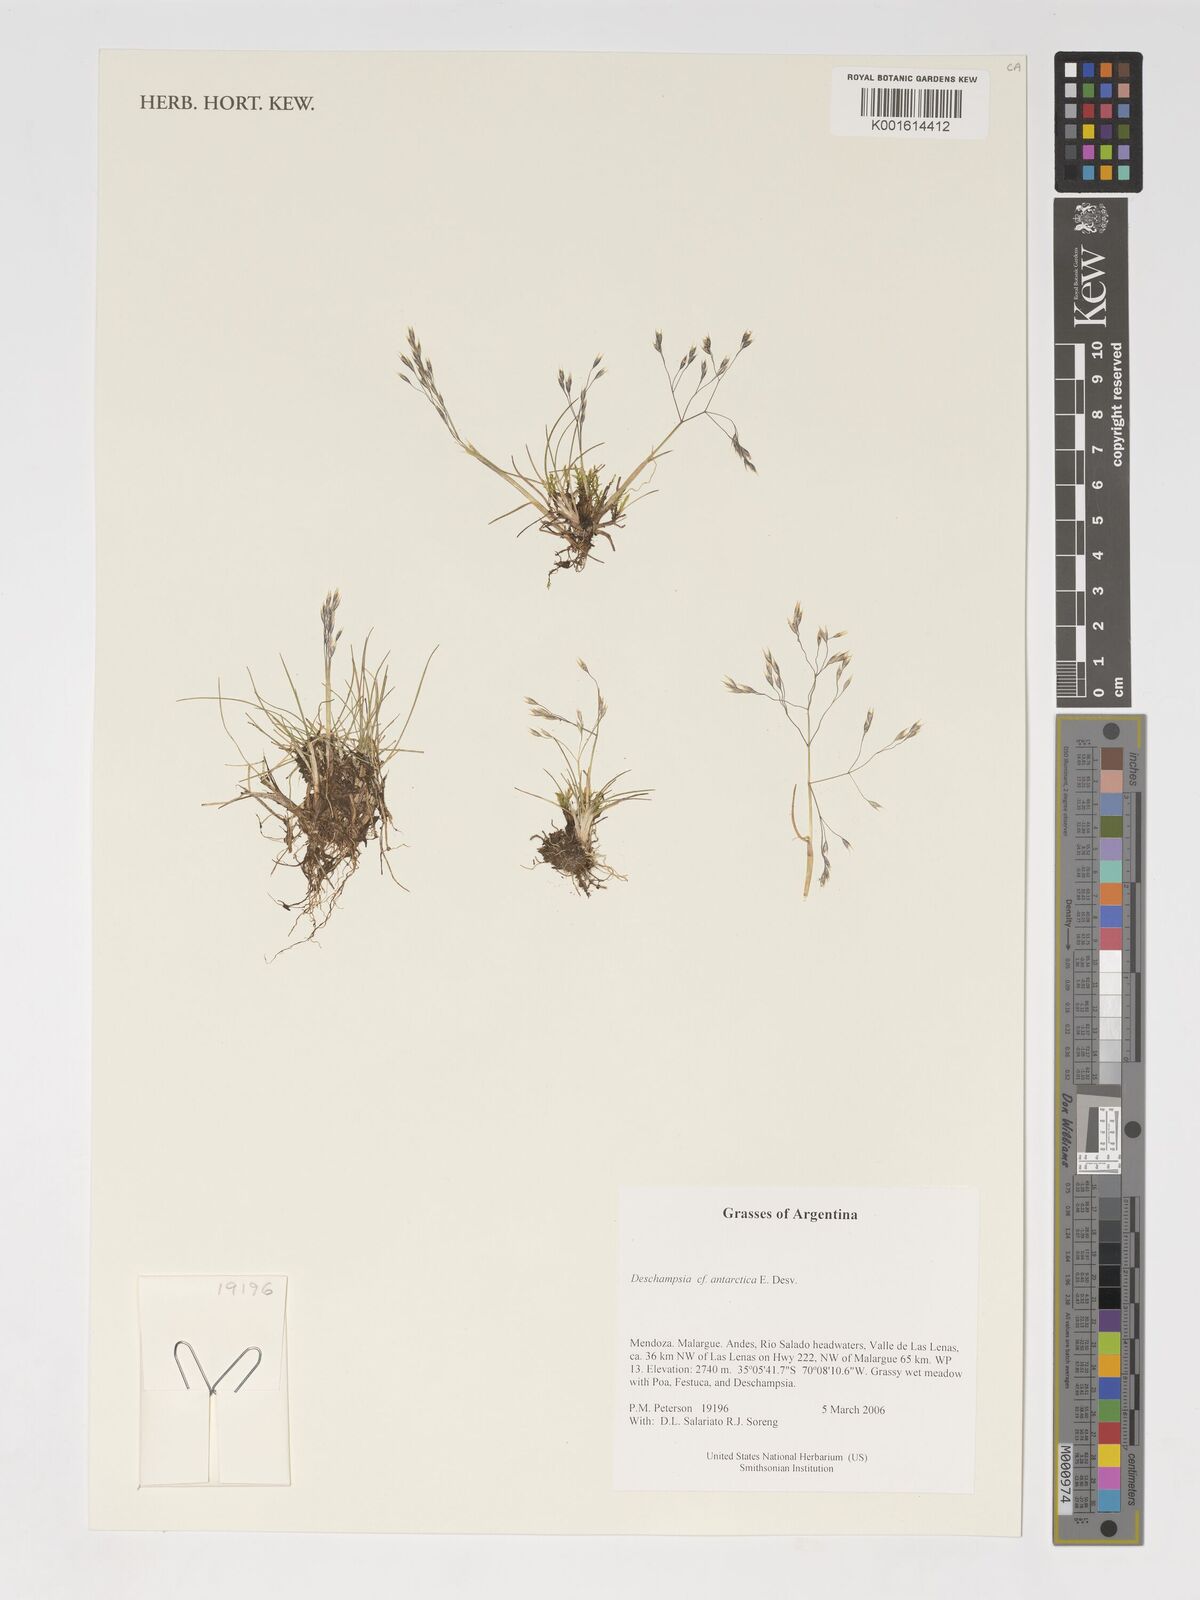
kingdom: Plantae
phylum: Tracheophyta
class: Liliopsida
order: Poales
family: Poaceae
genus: Deschampsia
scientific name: Deschampsia antarctica
